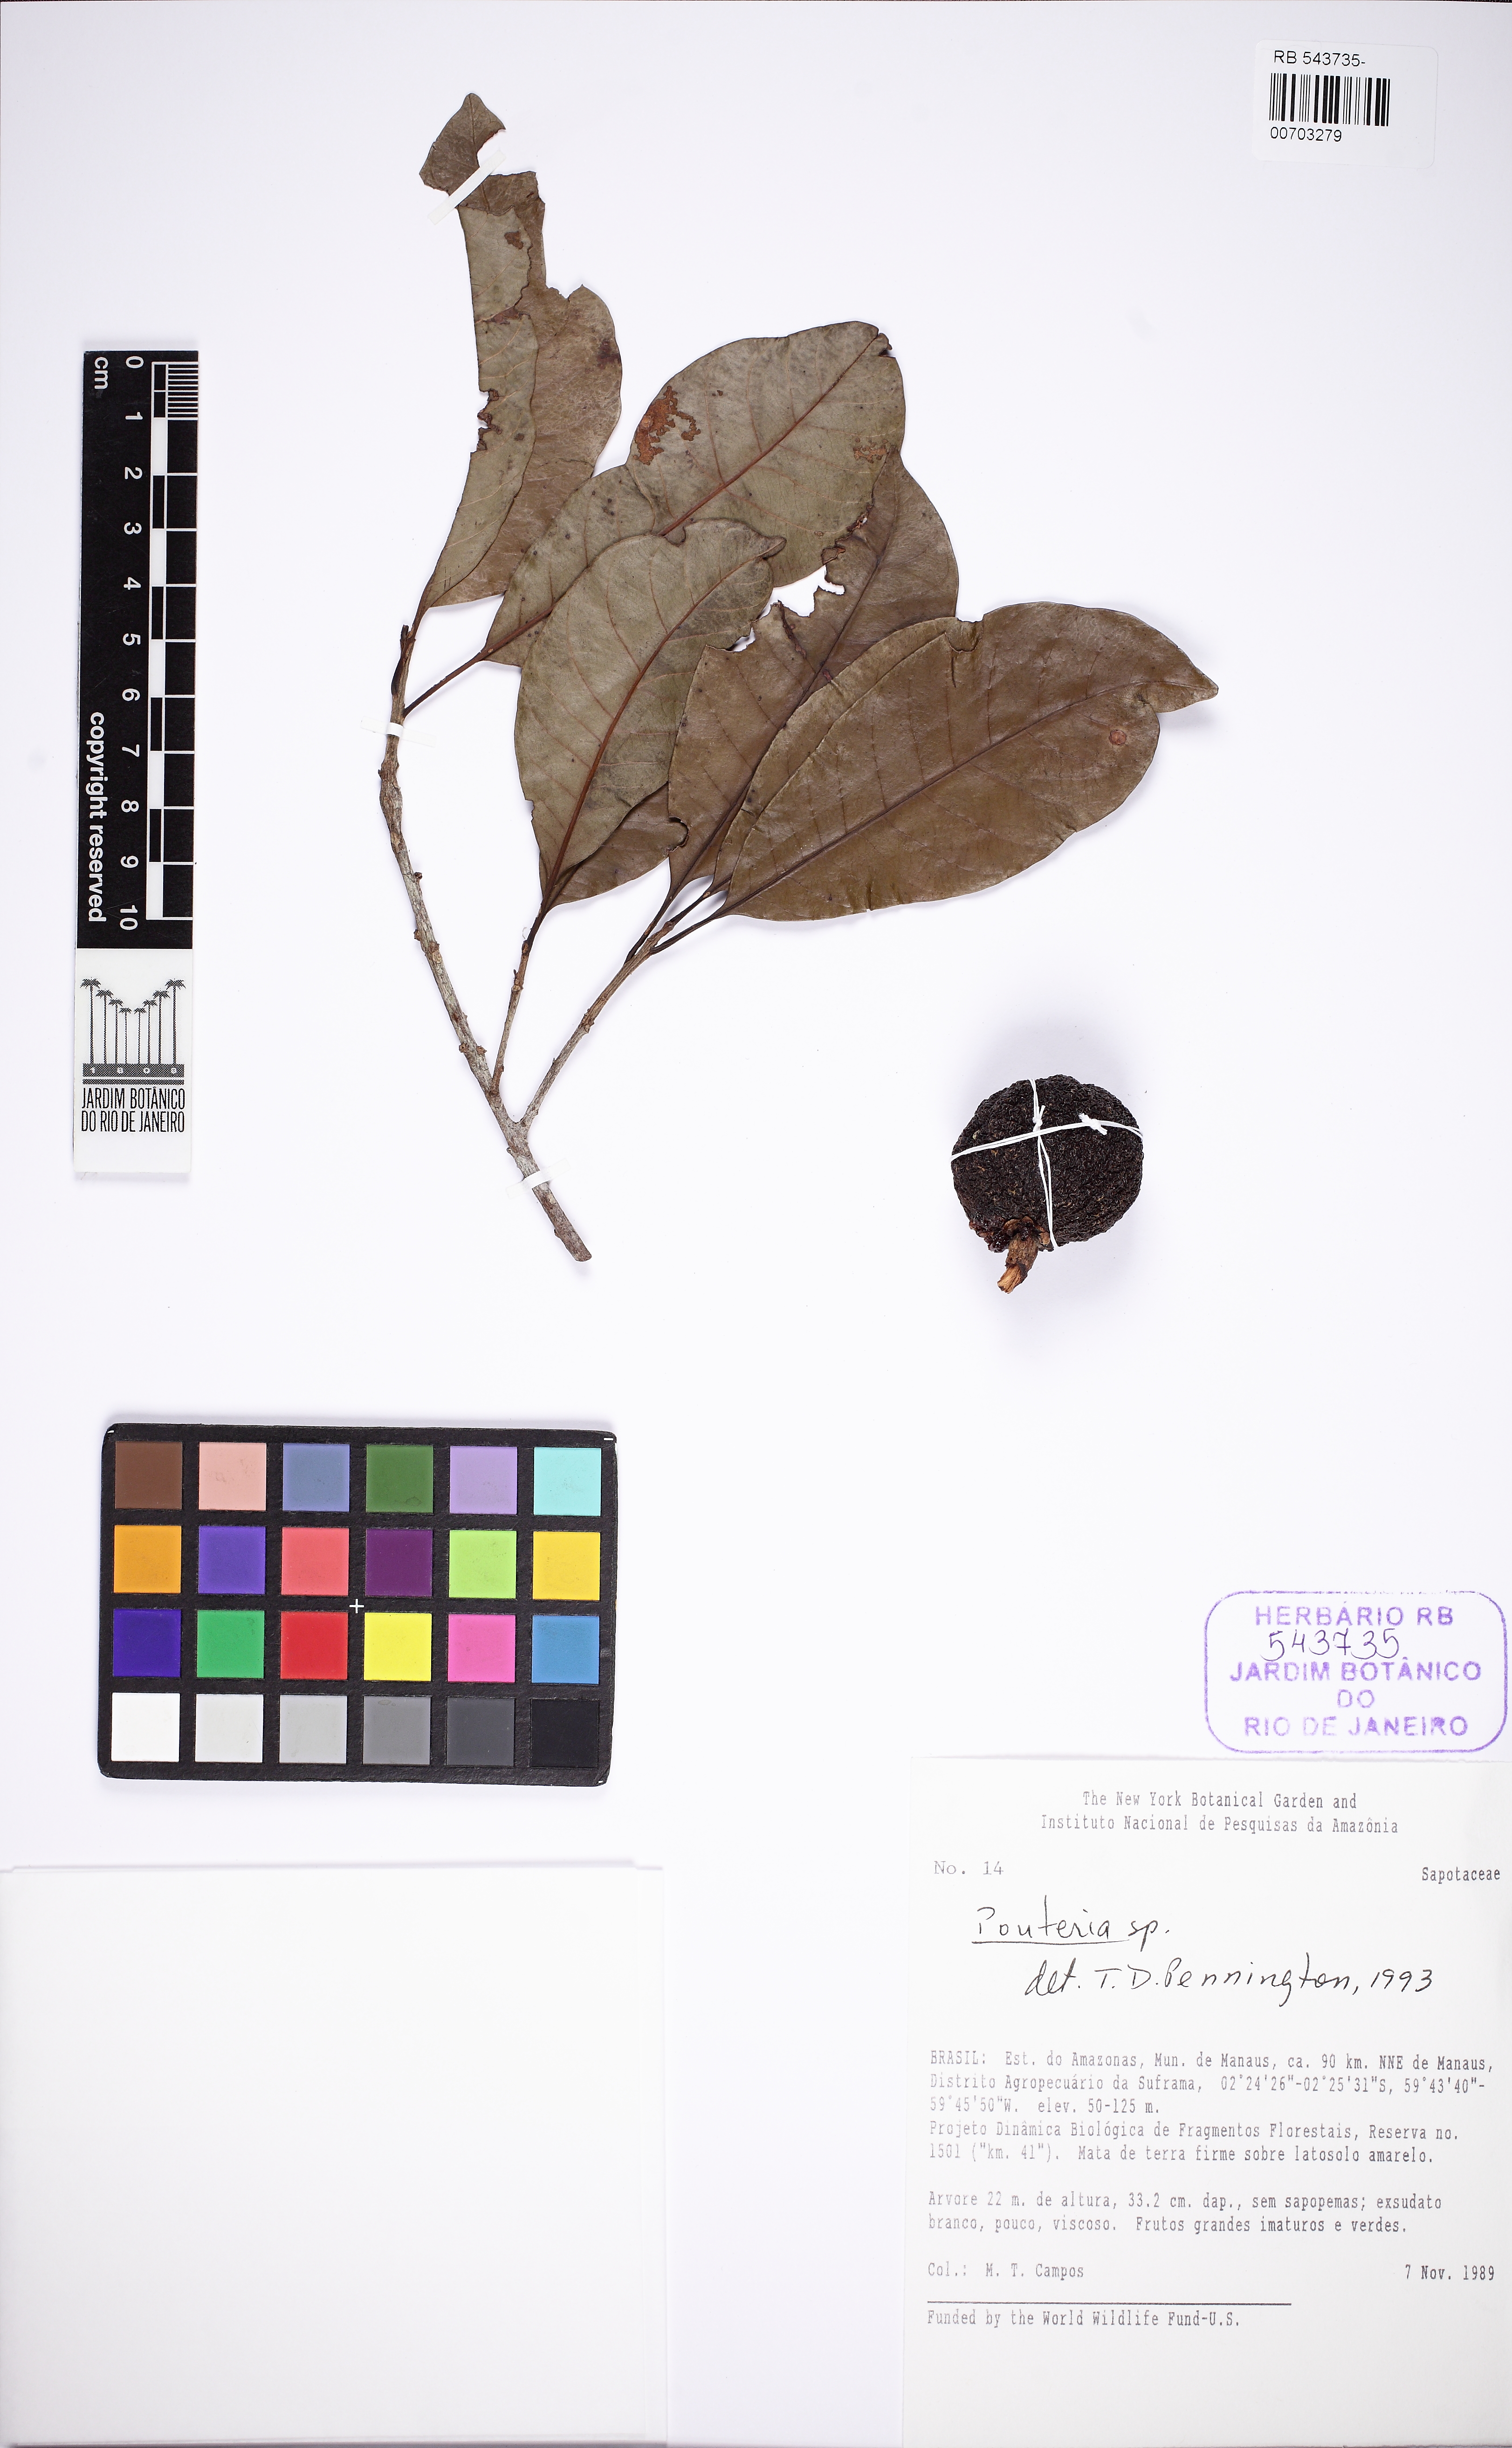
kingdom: Plantae
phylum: Tracheophyta
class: Magnoliopsida
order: Ericales
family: Sapotaceae
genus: Pouteria
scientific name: Pouteria
